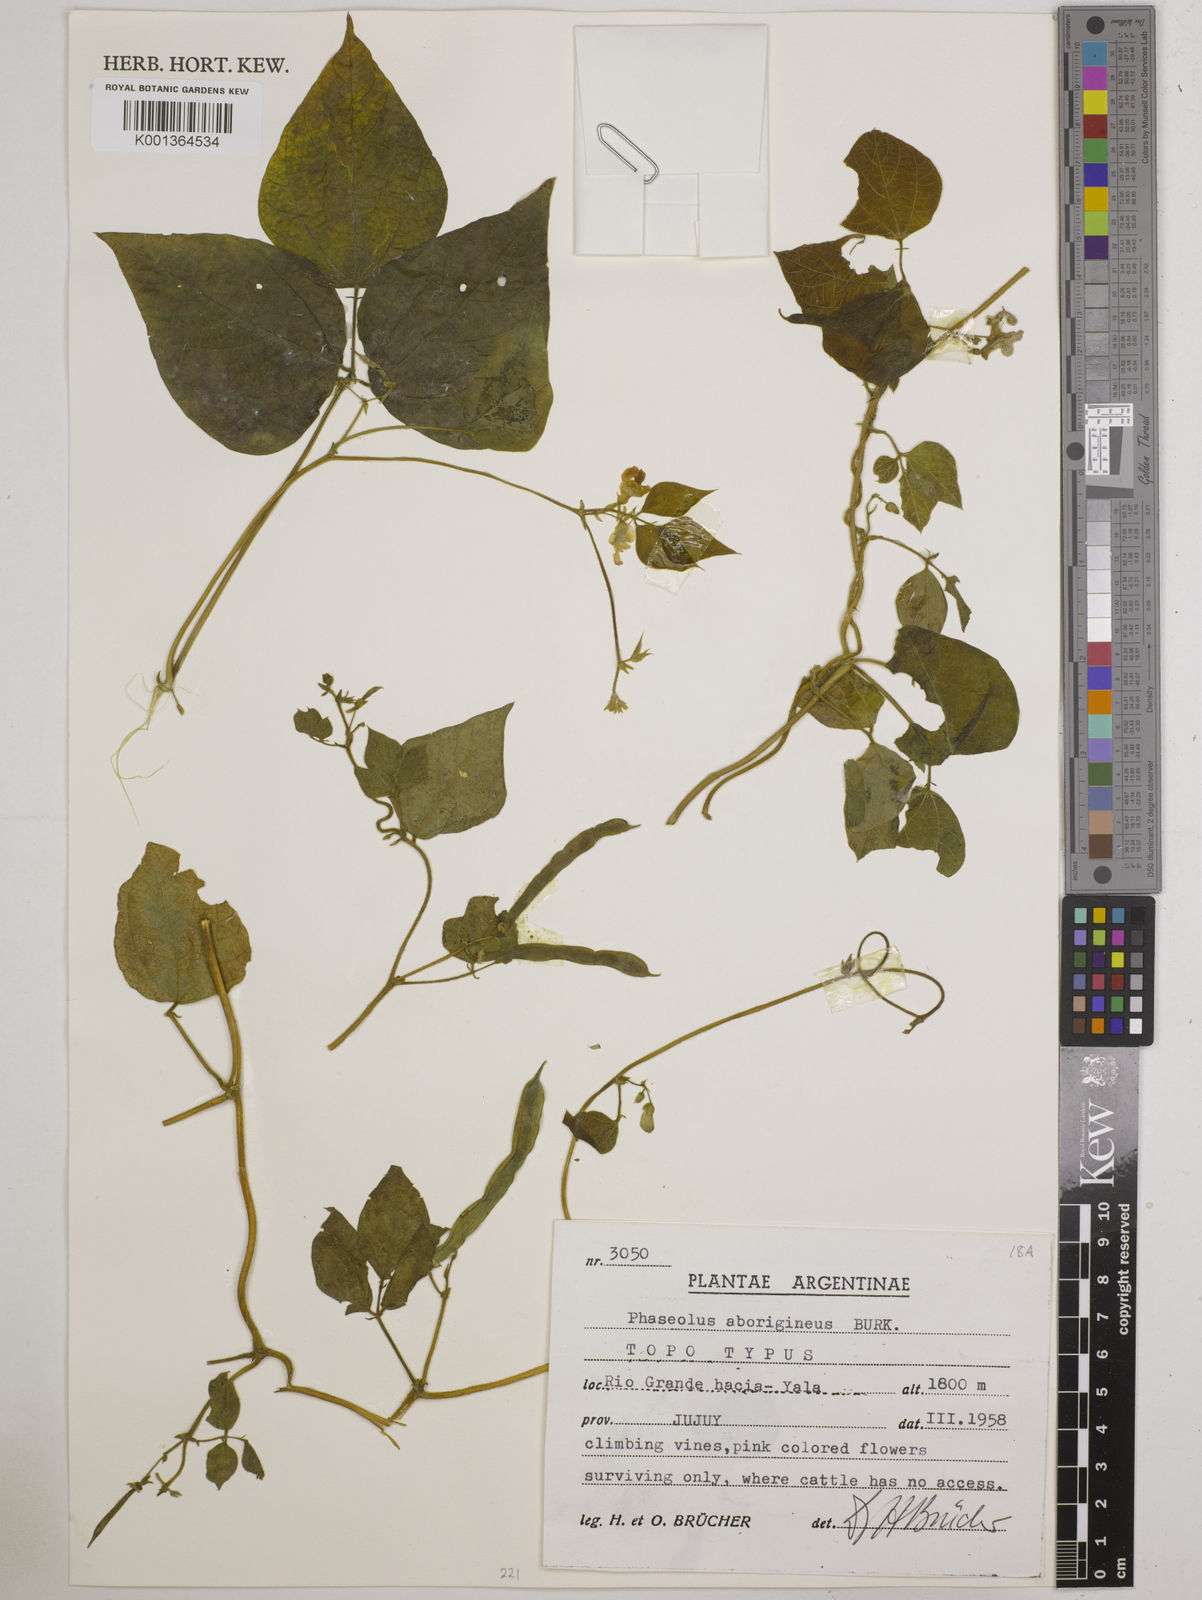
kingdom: Plantae
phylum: Tracheophyta
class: Magnoliopsida
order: Fabales
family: Fabaceae
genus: Phaseolus
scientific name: Phaseolus vulgaris
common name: Bean
